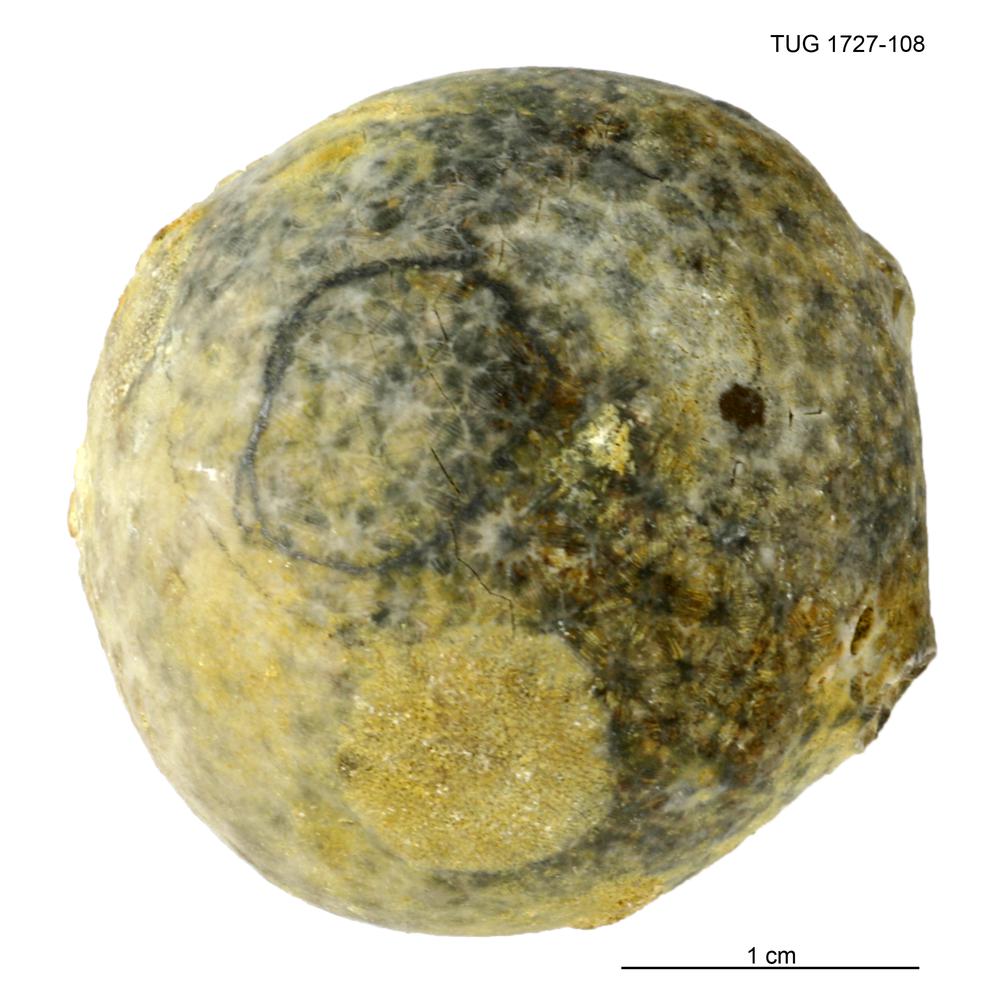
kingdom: Animalia
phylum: Echinodermata
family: Echinosphaeritidae
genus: Echinosphaerites
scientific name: Echinosphaerites Echinus aurantium
